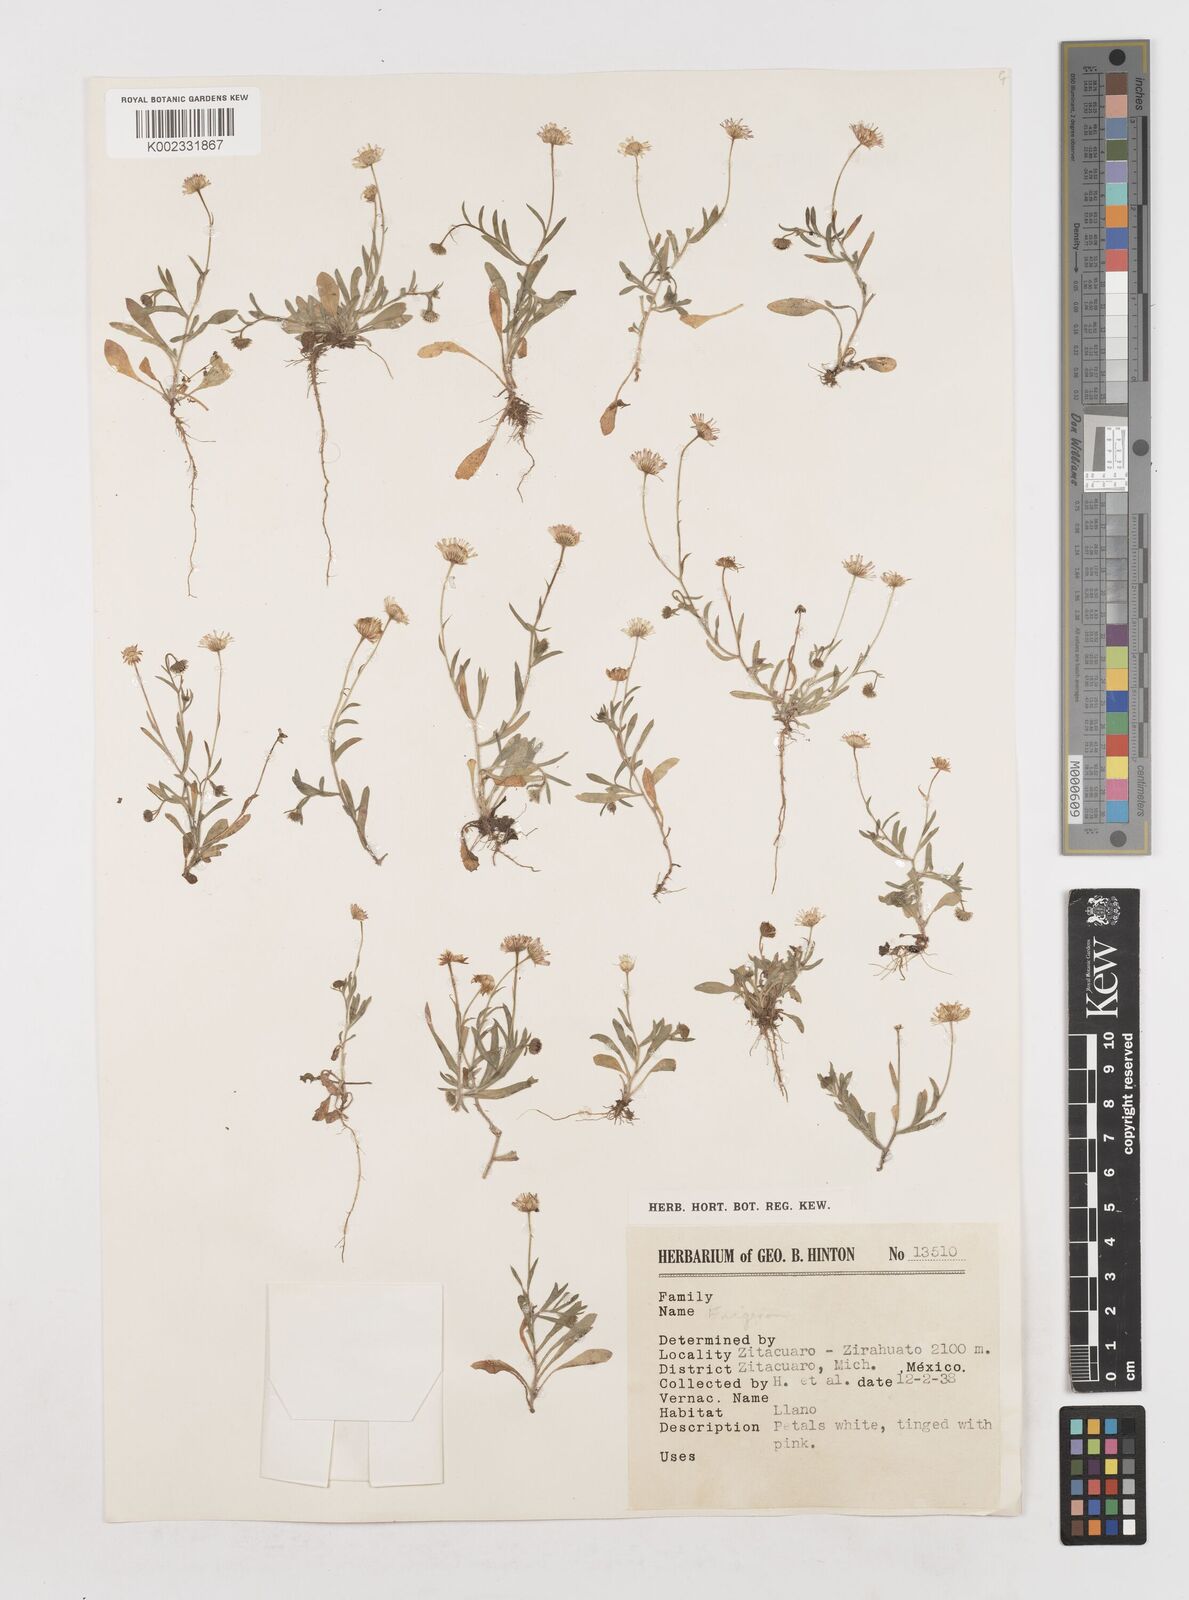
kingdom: Plantae
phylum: Tracheophyta
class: Magnoliopsida
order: Asterales
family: Asteraceae
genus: Erigeron
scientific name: Erigeron
